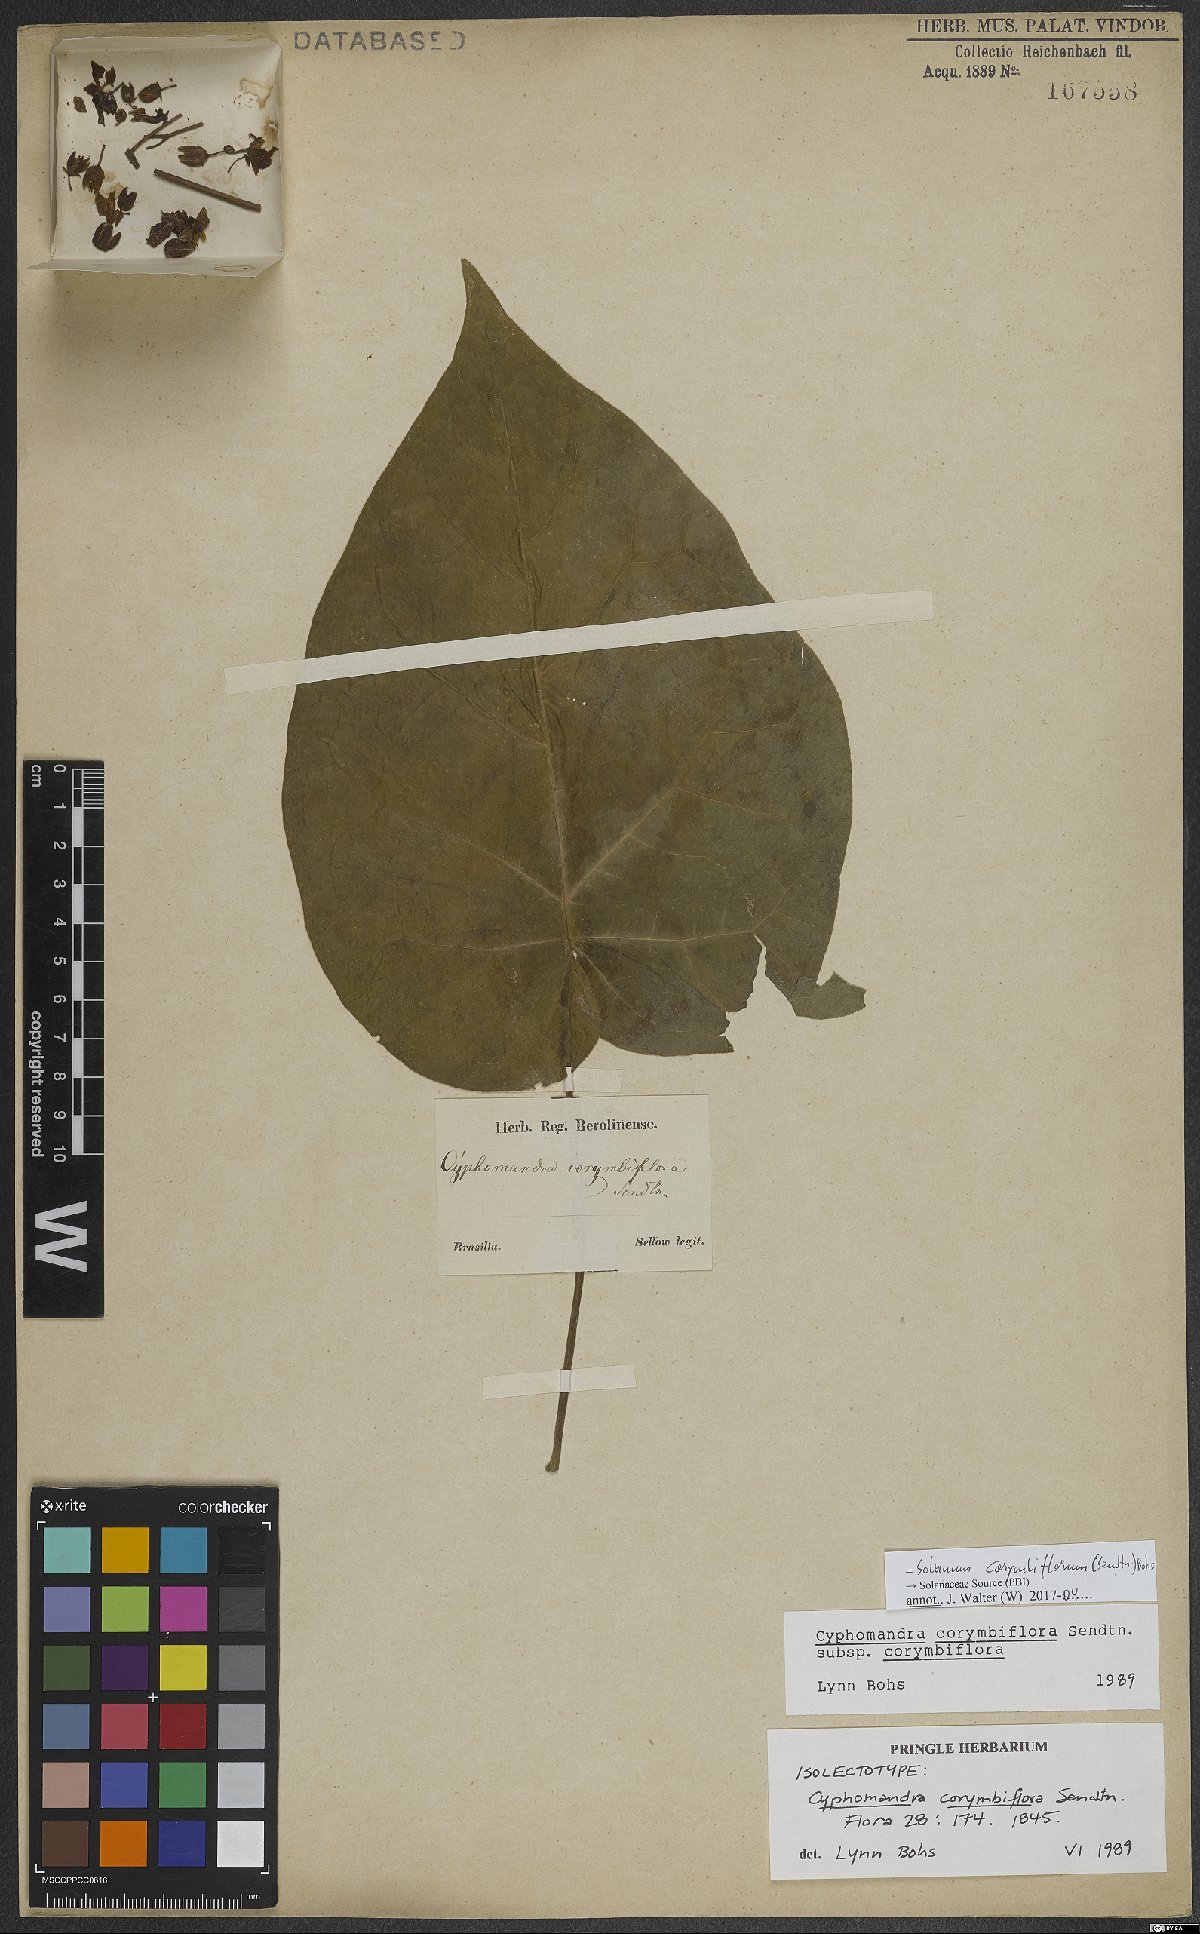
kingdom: Plantae
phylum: Tracheophyta
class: Magnoliopsida
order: Solanales
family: Solanaceae
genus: Solanum
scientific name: Solanum corymbiflorum
